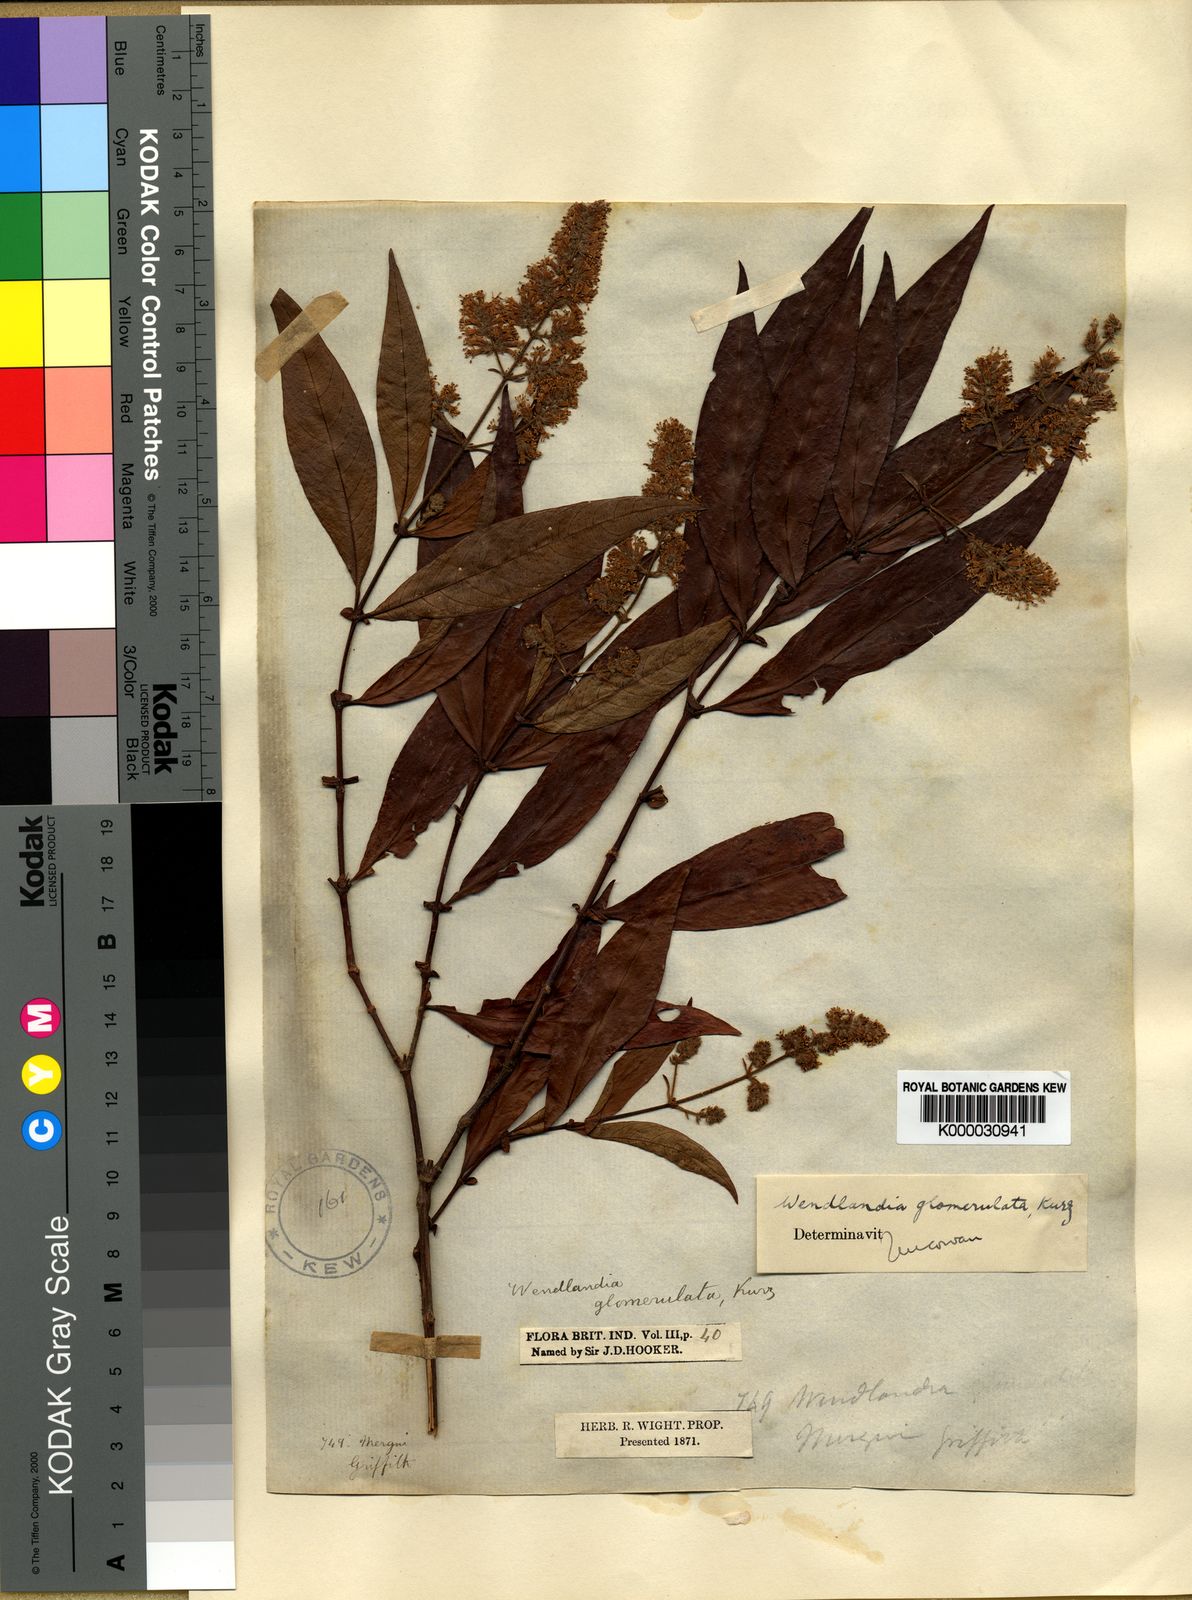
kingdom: Plantae
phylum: Tracheophyta
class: Magnoliopsida
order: Gentianales
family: Rubiaceae
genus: Wendlandia
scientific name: Wendlandia glomerulata
